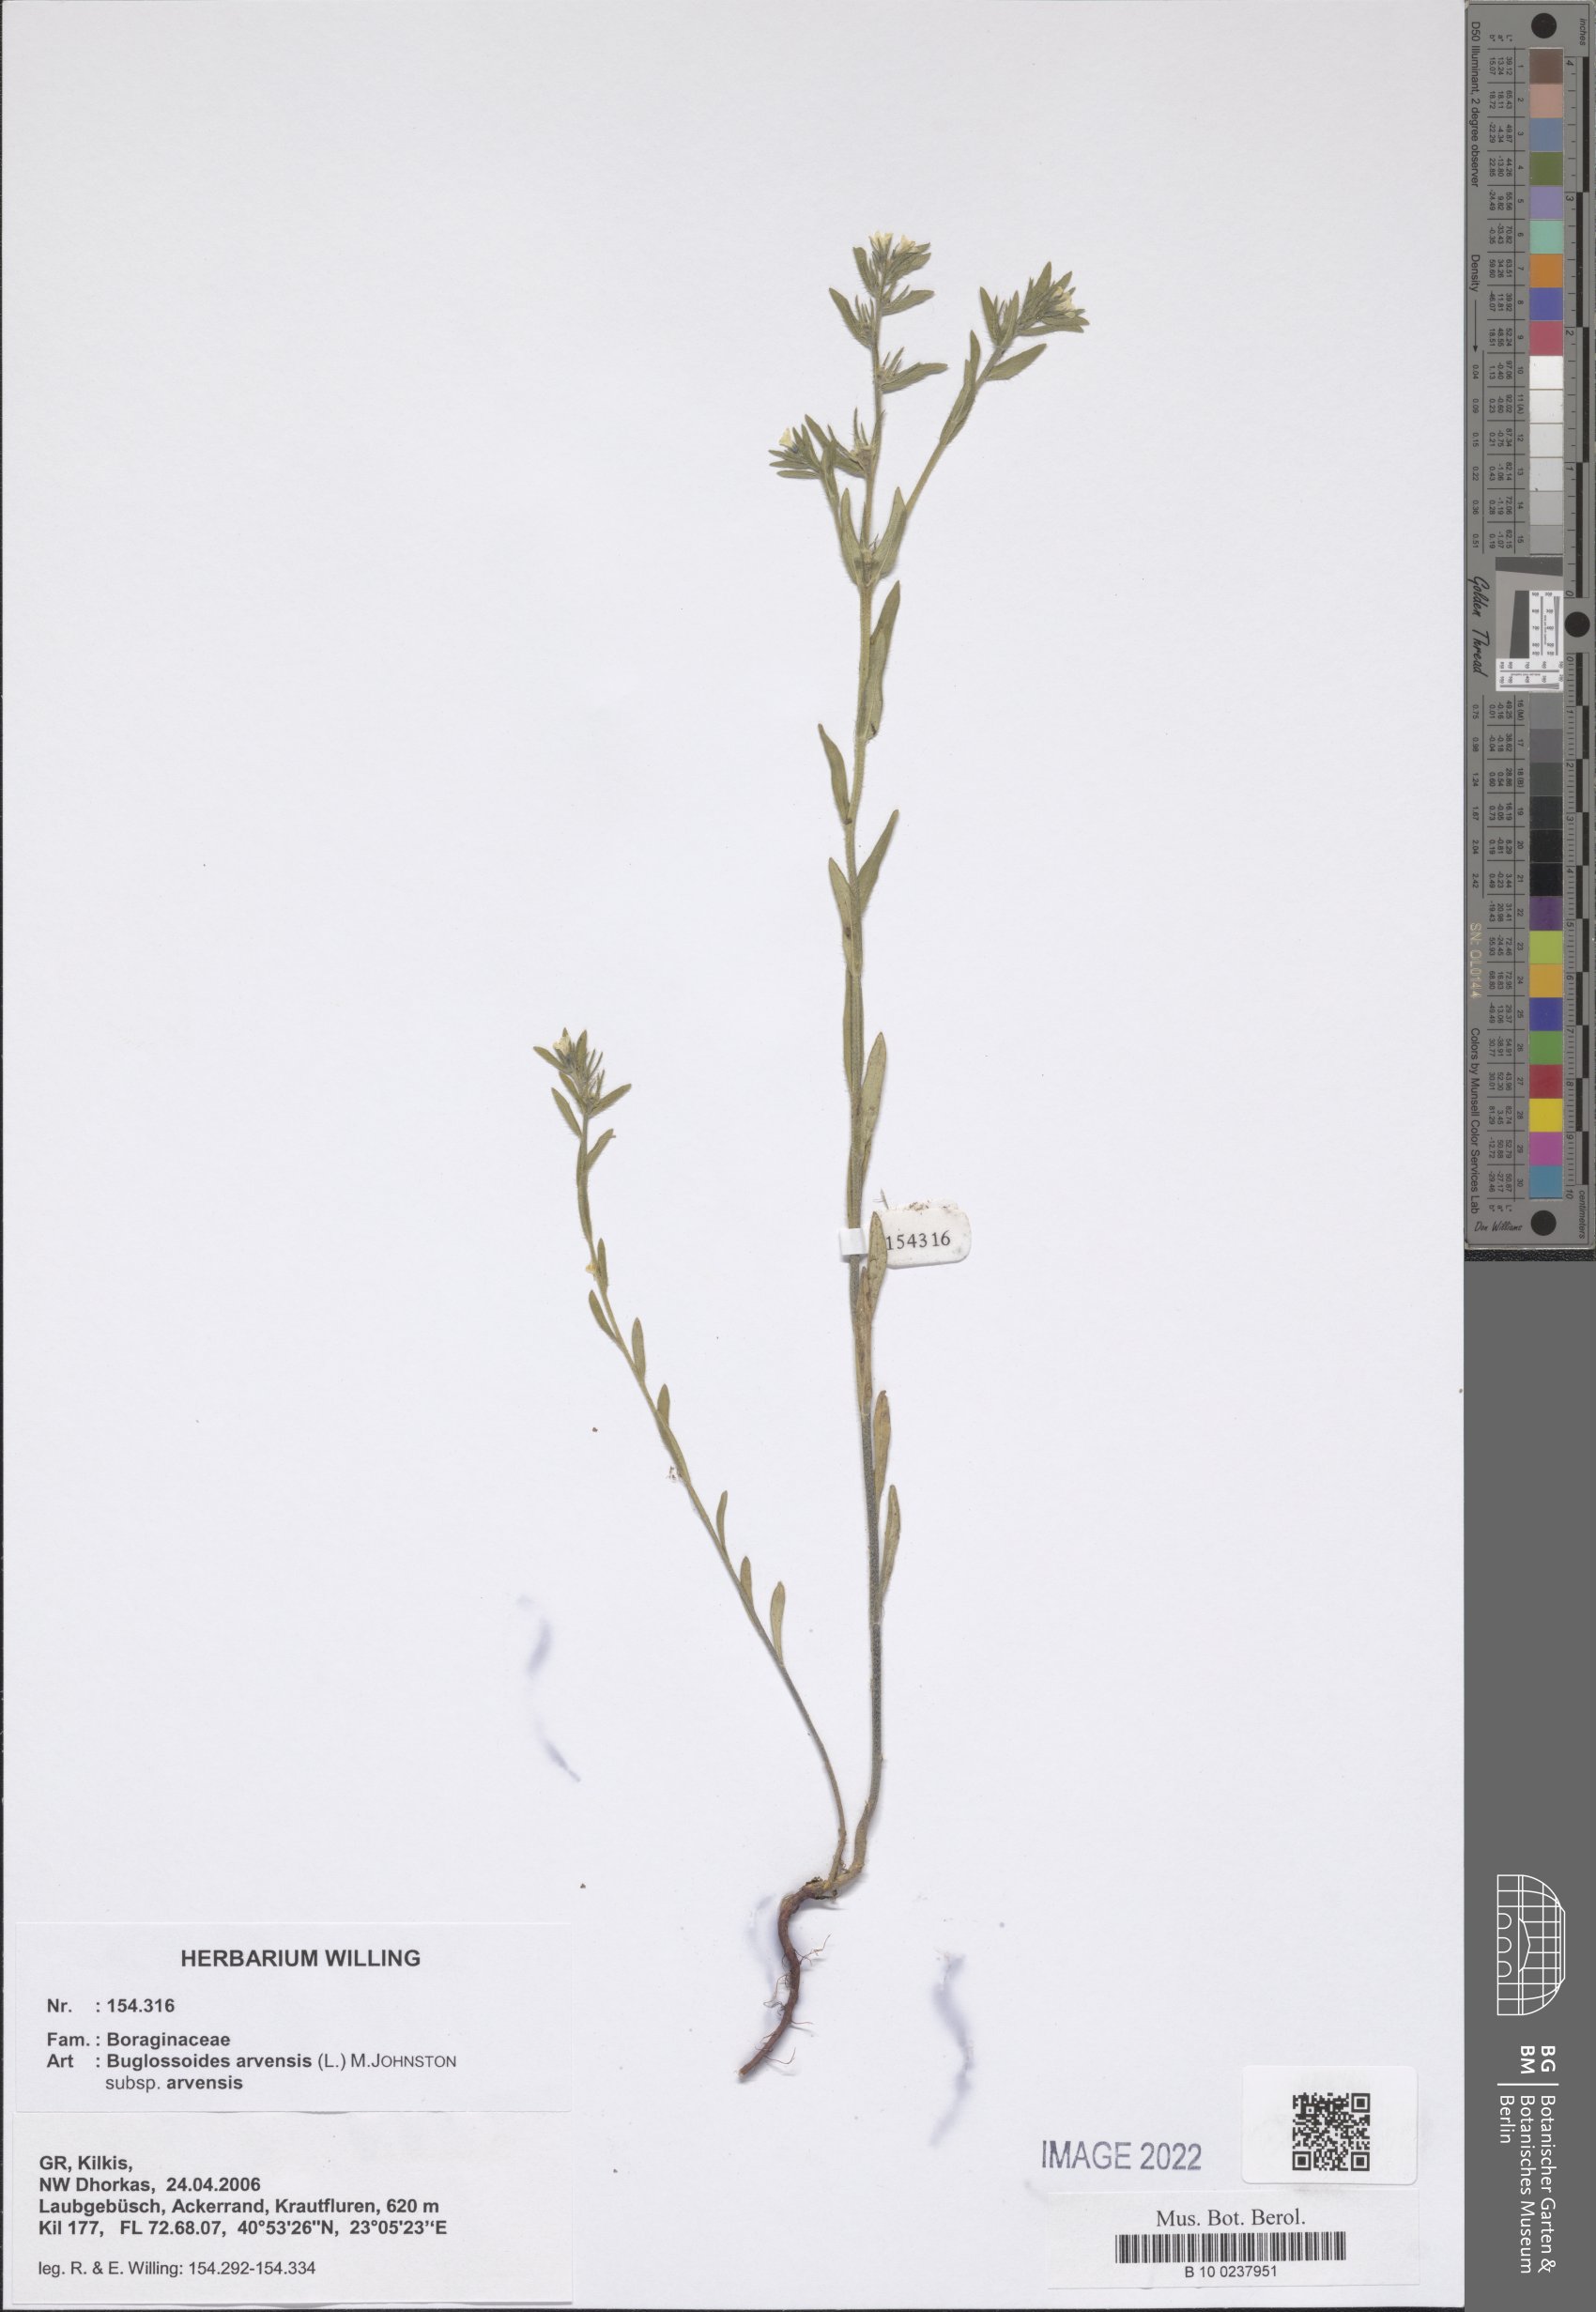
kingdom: Plantae
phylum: Tracheophyta
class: Magnoliopsida
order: Boraginales
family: Boraginaceae
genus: Buglossoides
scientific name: Buglossoides arvensis
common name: Corn gromwell
